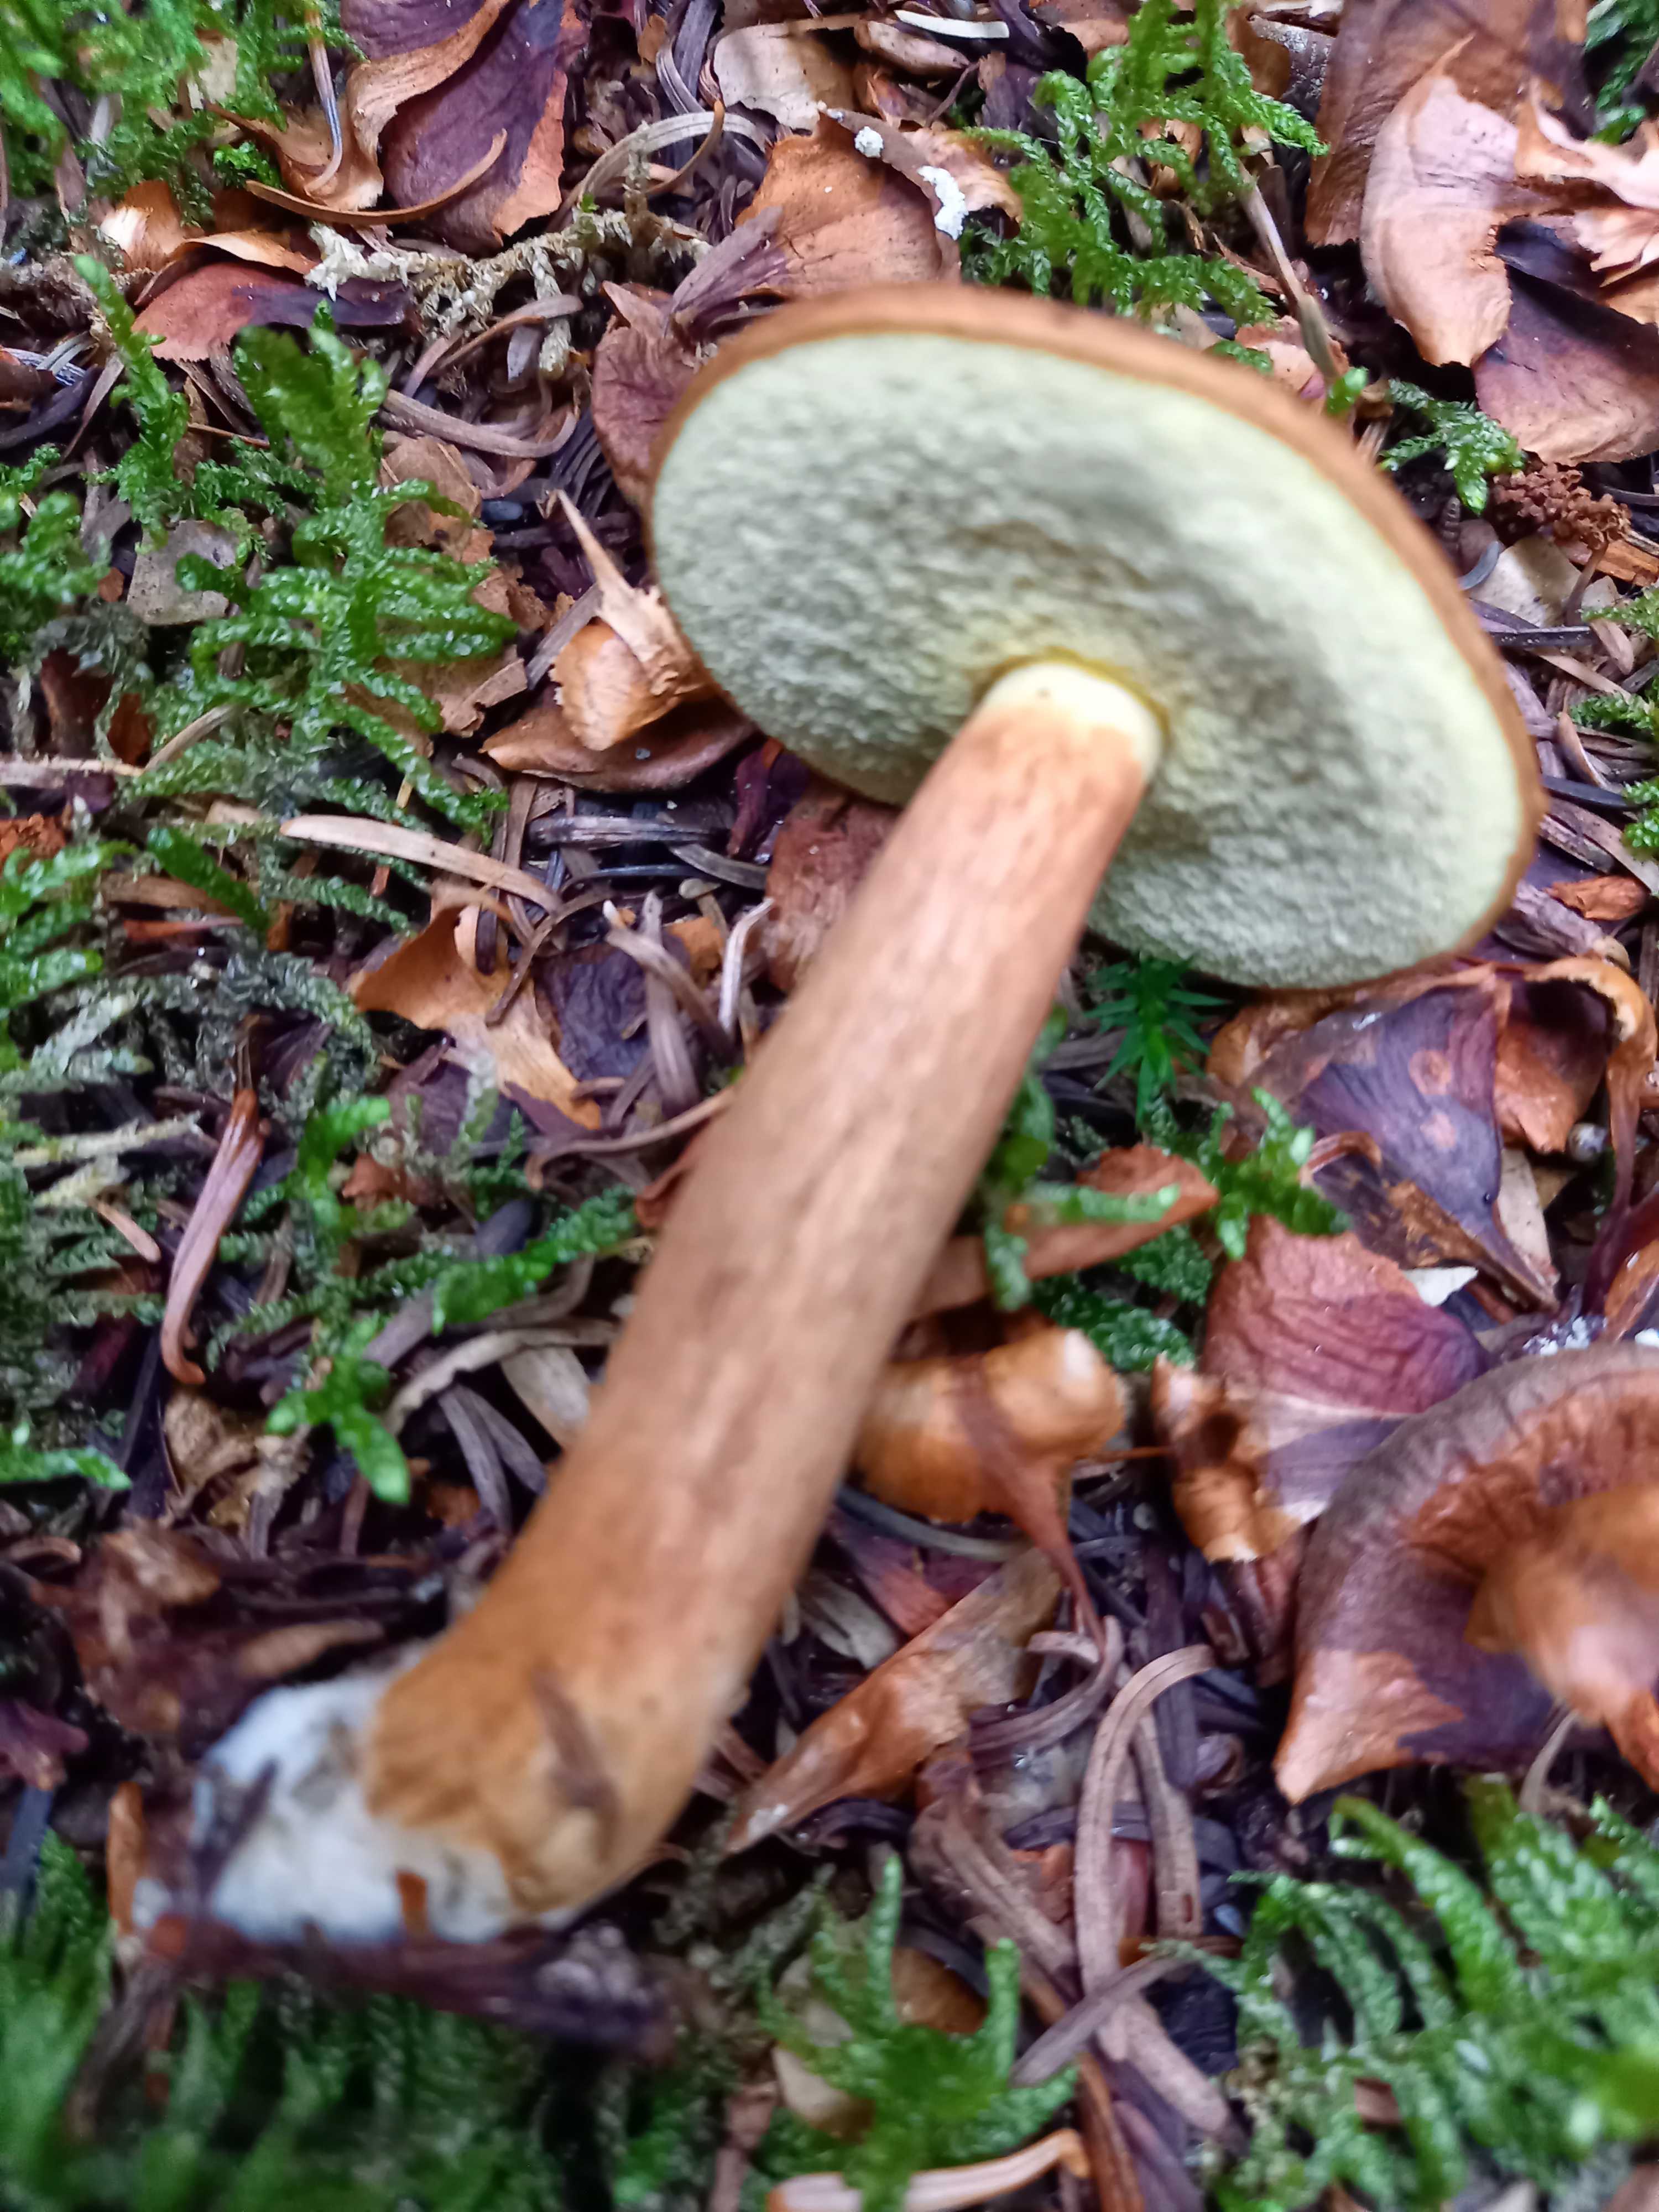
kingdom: Fungi
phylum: Basidiomycota
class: Agaricomycetes
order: Boletales
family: Boletaceae
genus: Imleria
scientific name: Imleria badia
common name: brunstokket rørhat
